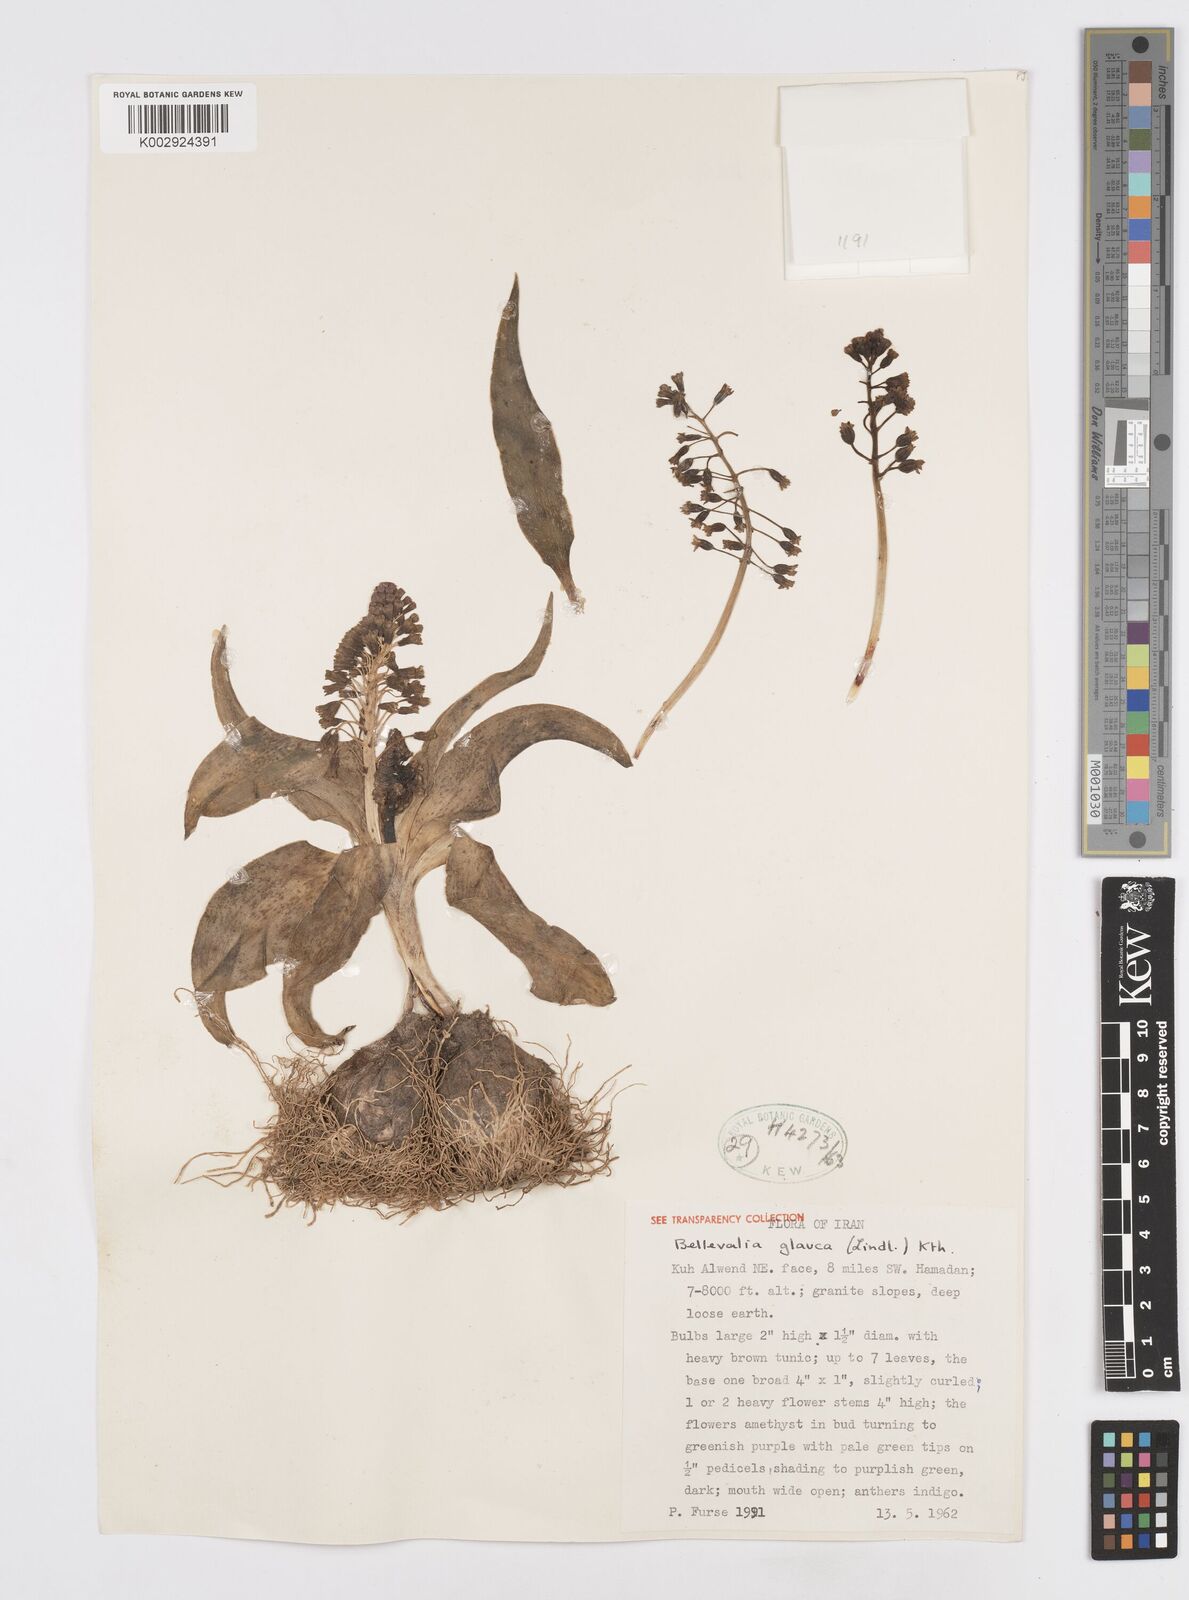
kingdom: Plantae
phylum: Tracheophyta
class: Liliopsida
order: Asparagales
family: Asparagaceae
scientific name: Asparagaceae
